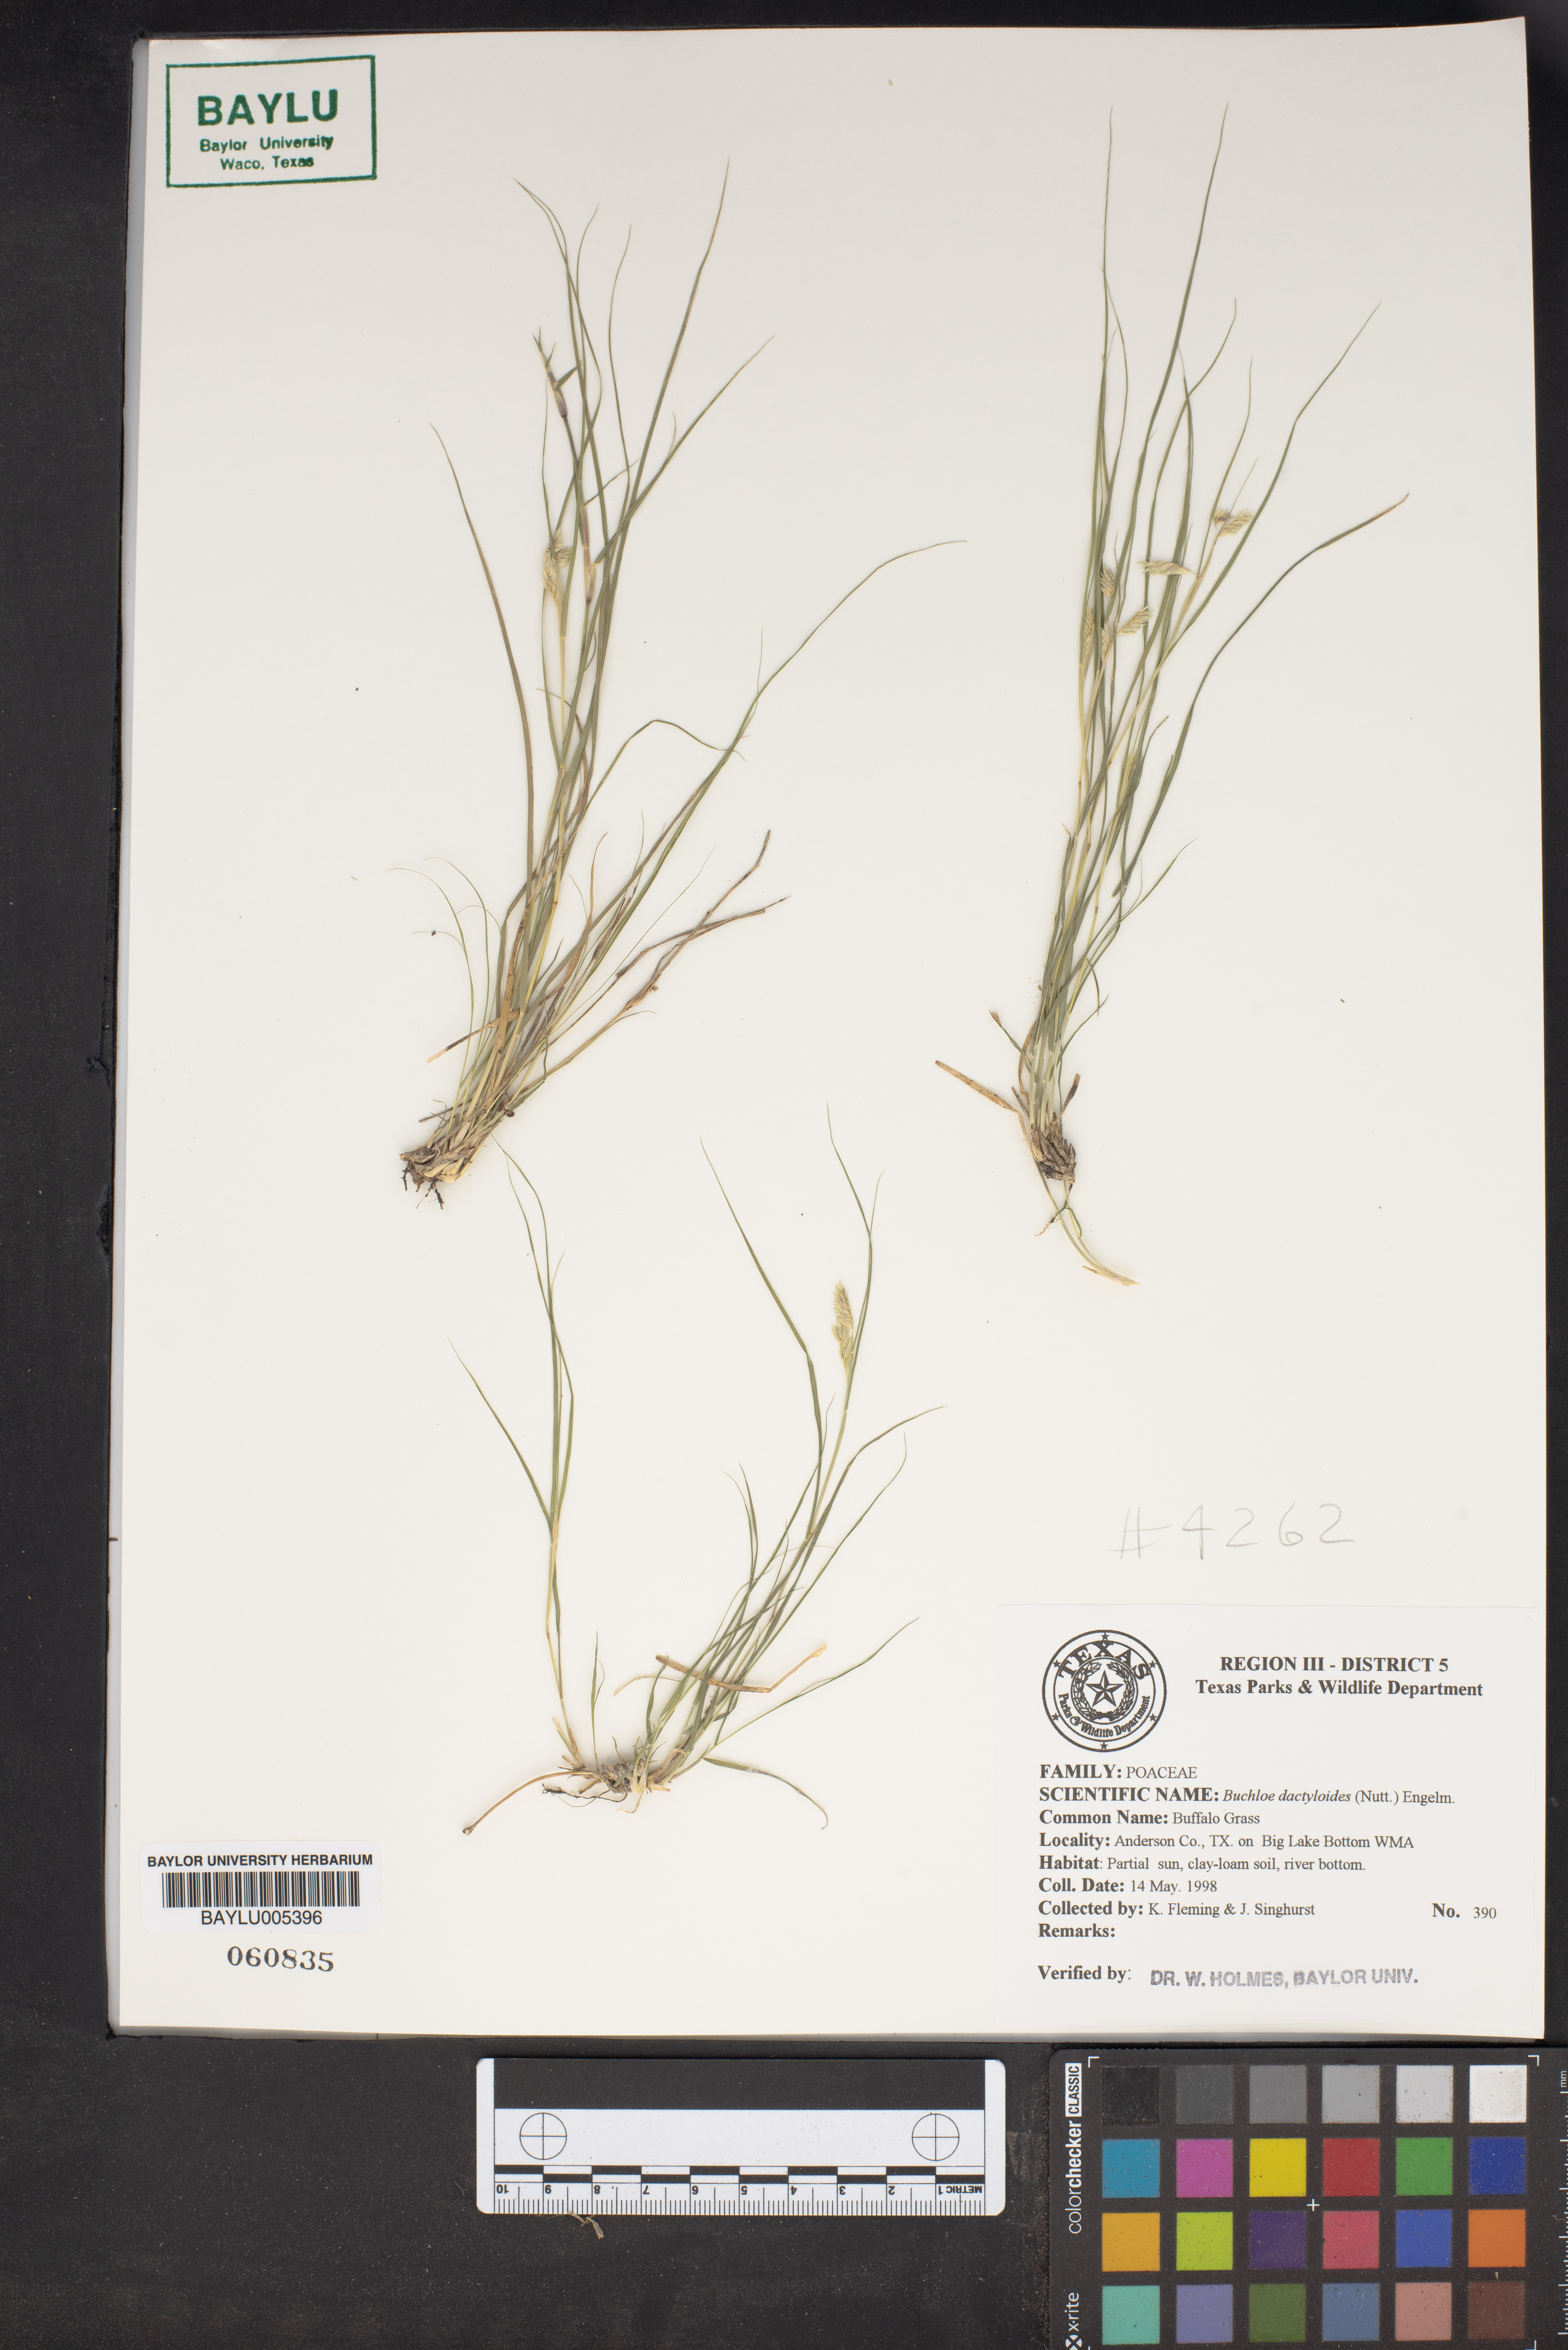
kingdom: Plantae
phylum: Tracheophyta
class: Liliopsida
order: Poales
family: Poaceae
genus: Bouteloua
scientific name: Bouteloua dactyloides
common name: Buffalo grass
